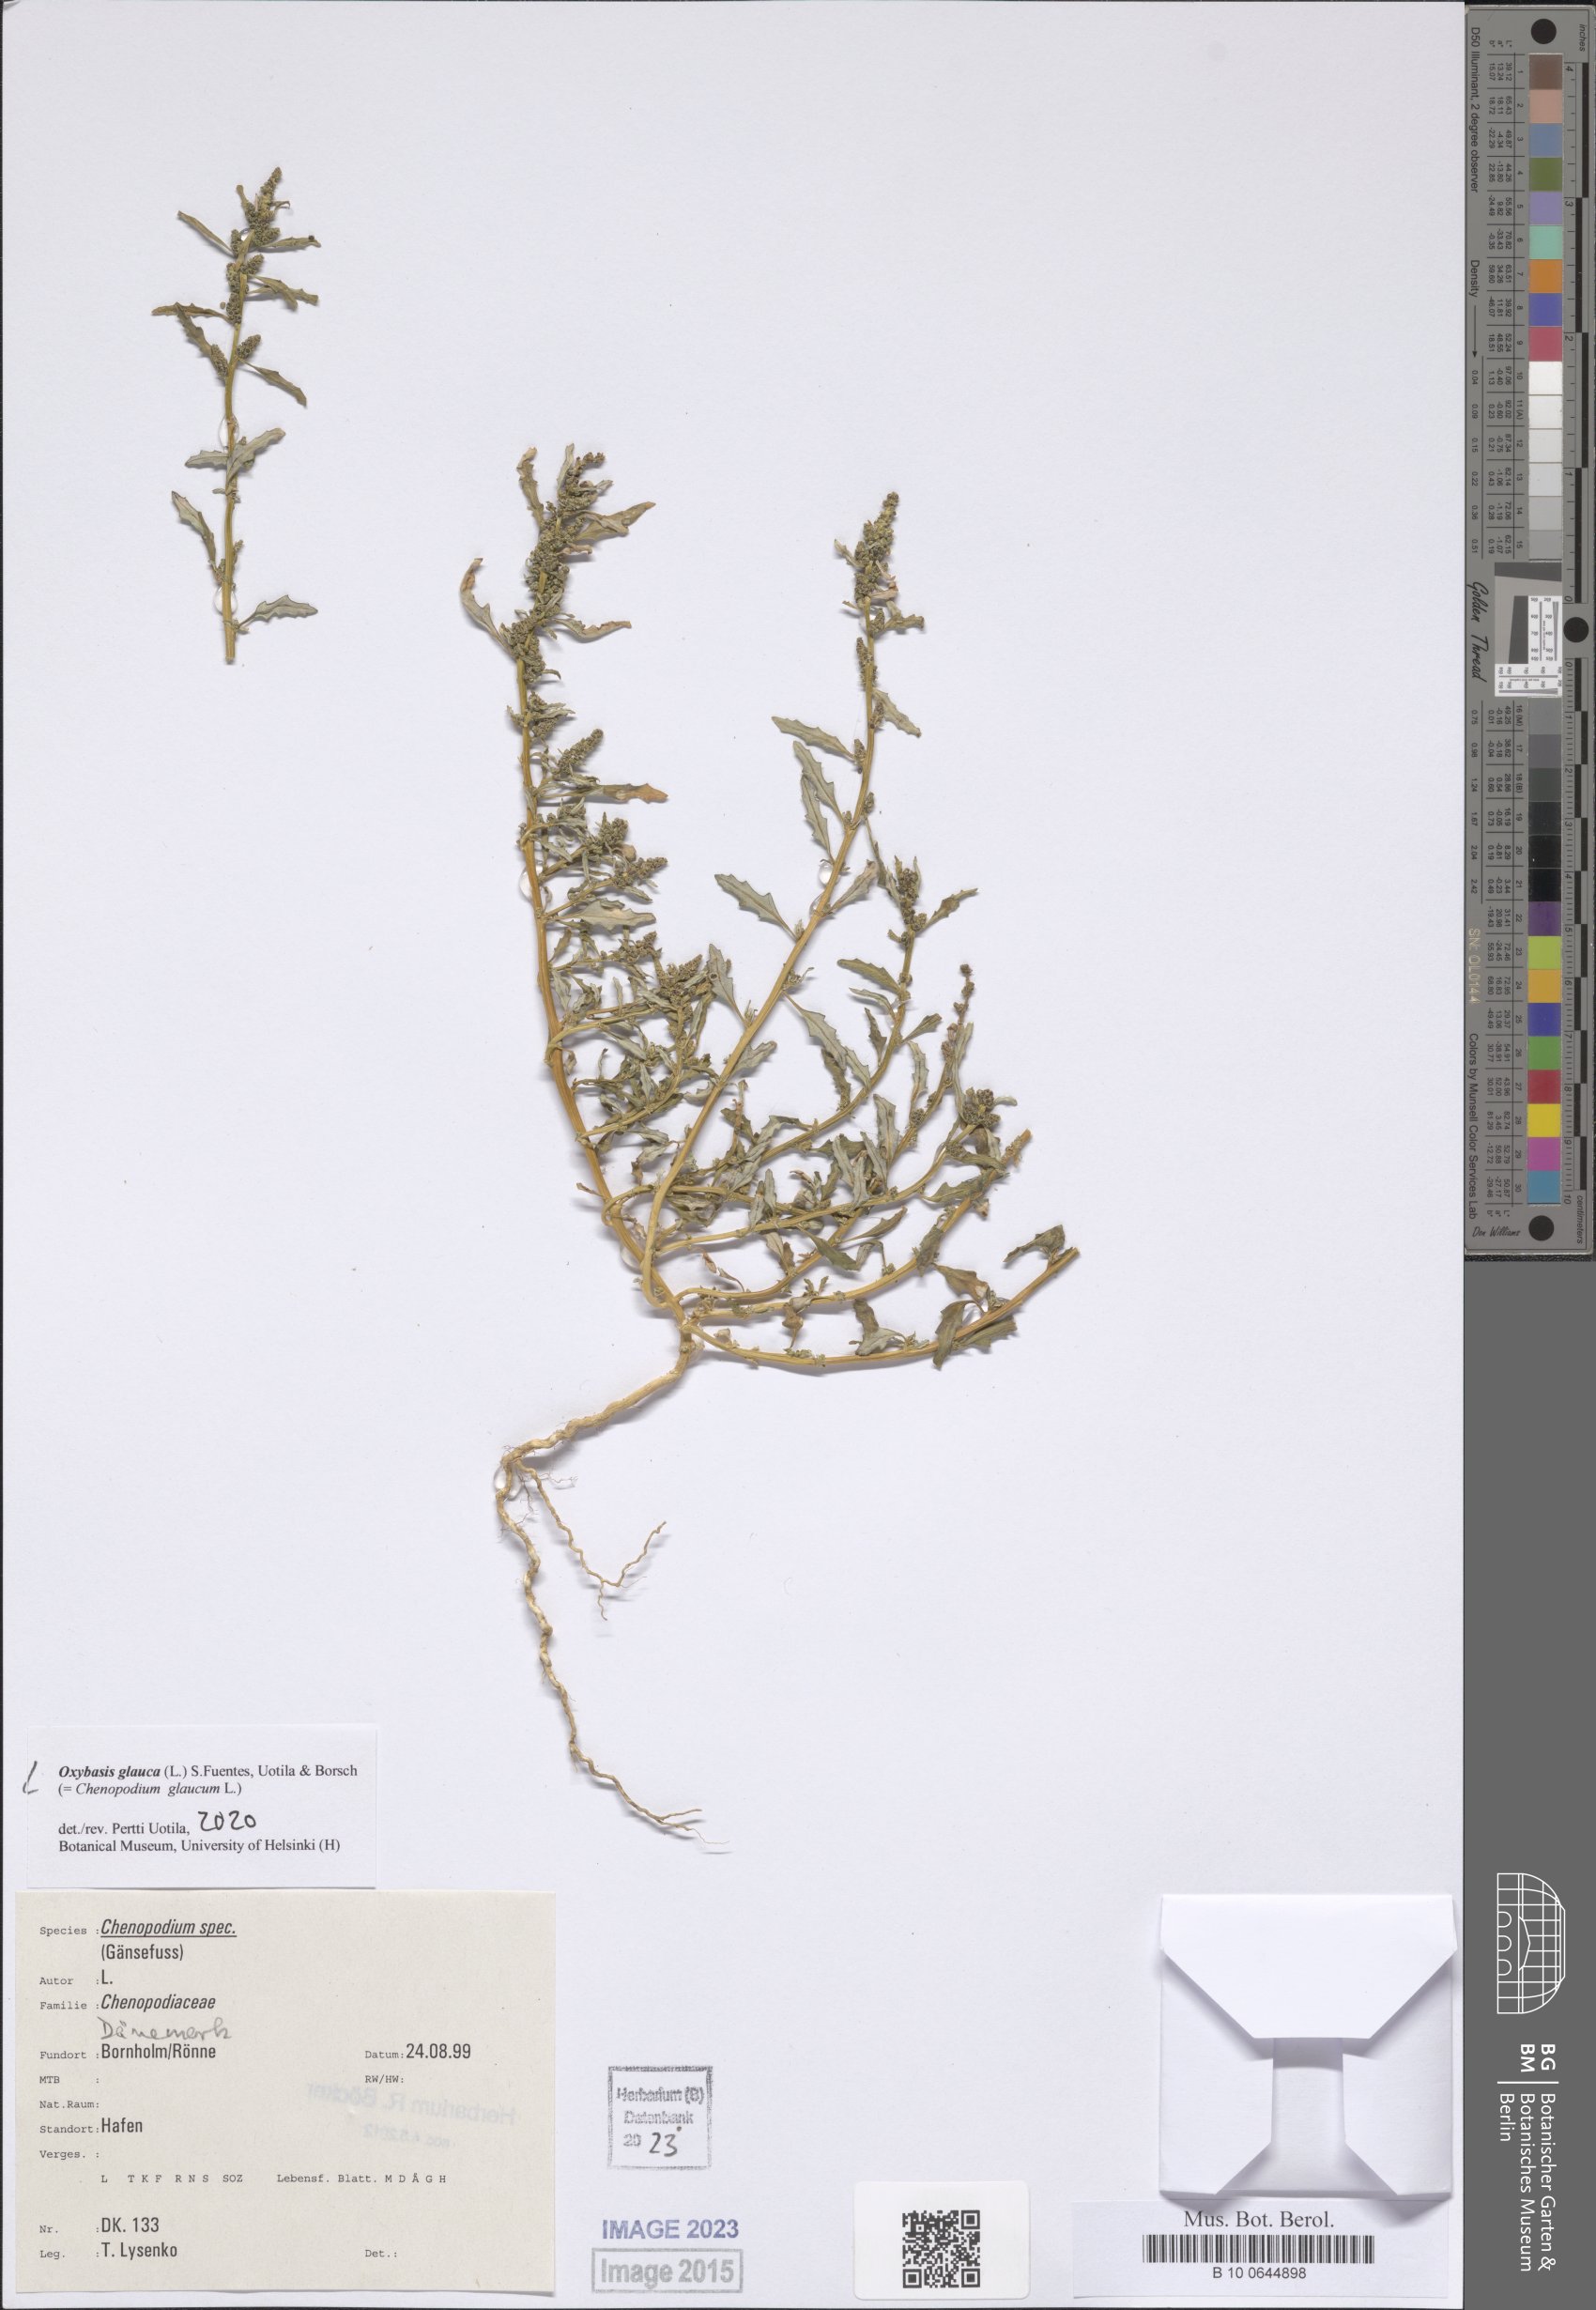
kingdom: Plantae
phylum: Tracheophyta
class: Magnoliopsida
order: Caryophyllales
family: Amaranthaceae
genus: Oxybasis
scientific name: Oxybasis glauca
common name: Glaucous goosefoot
